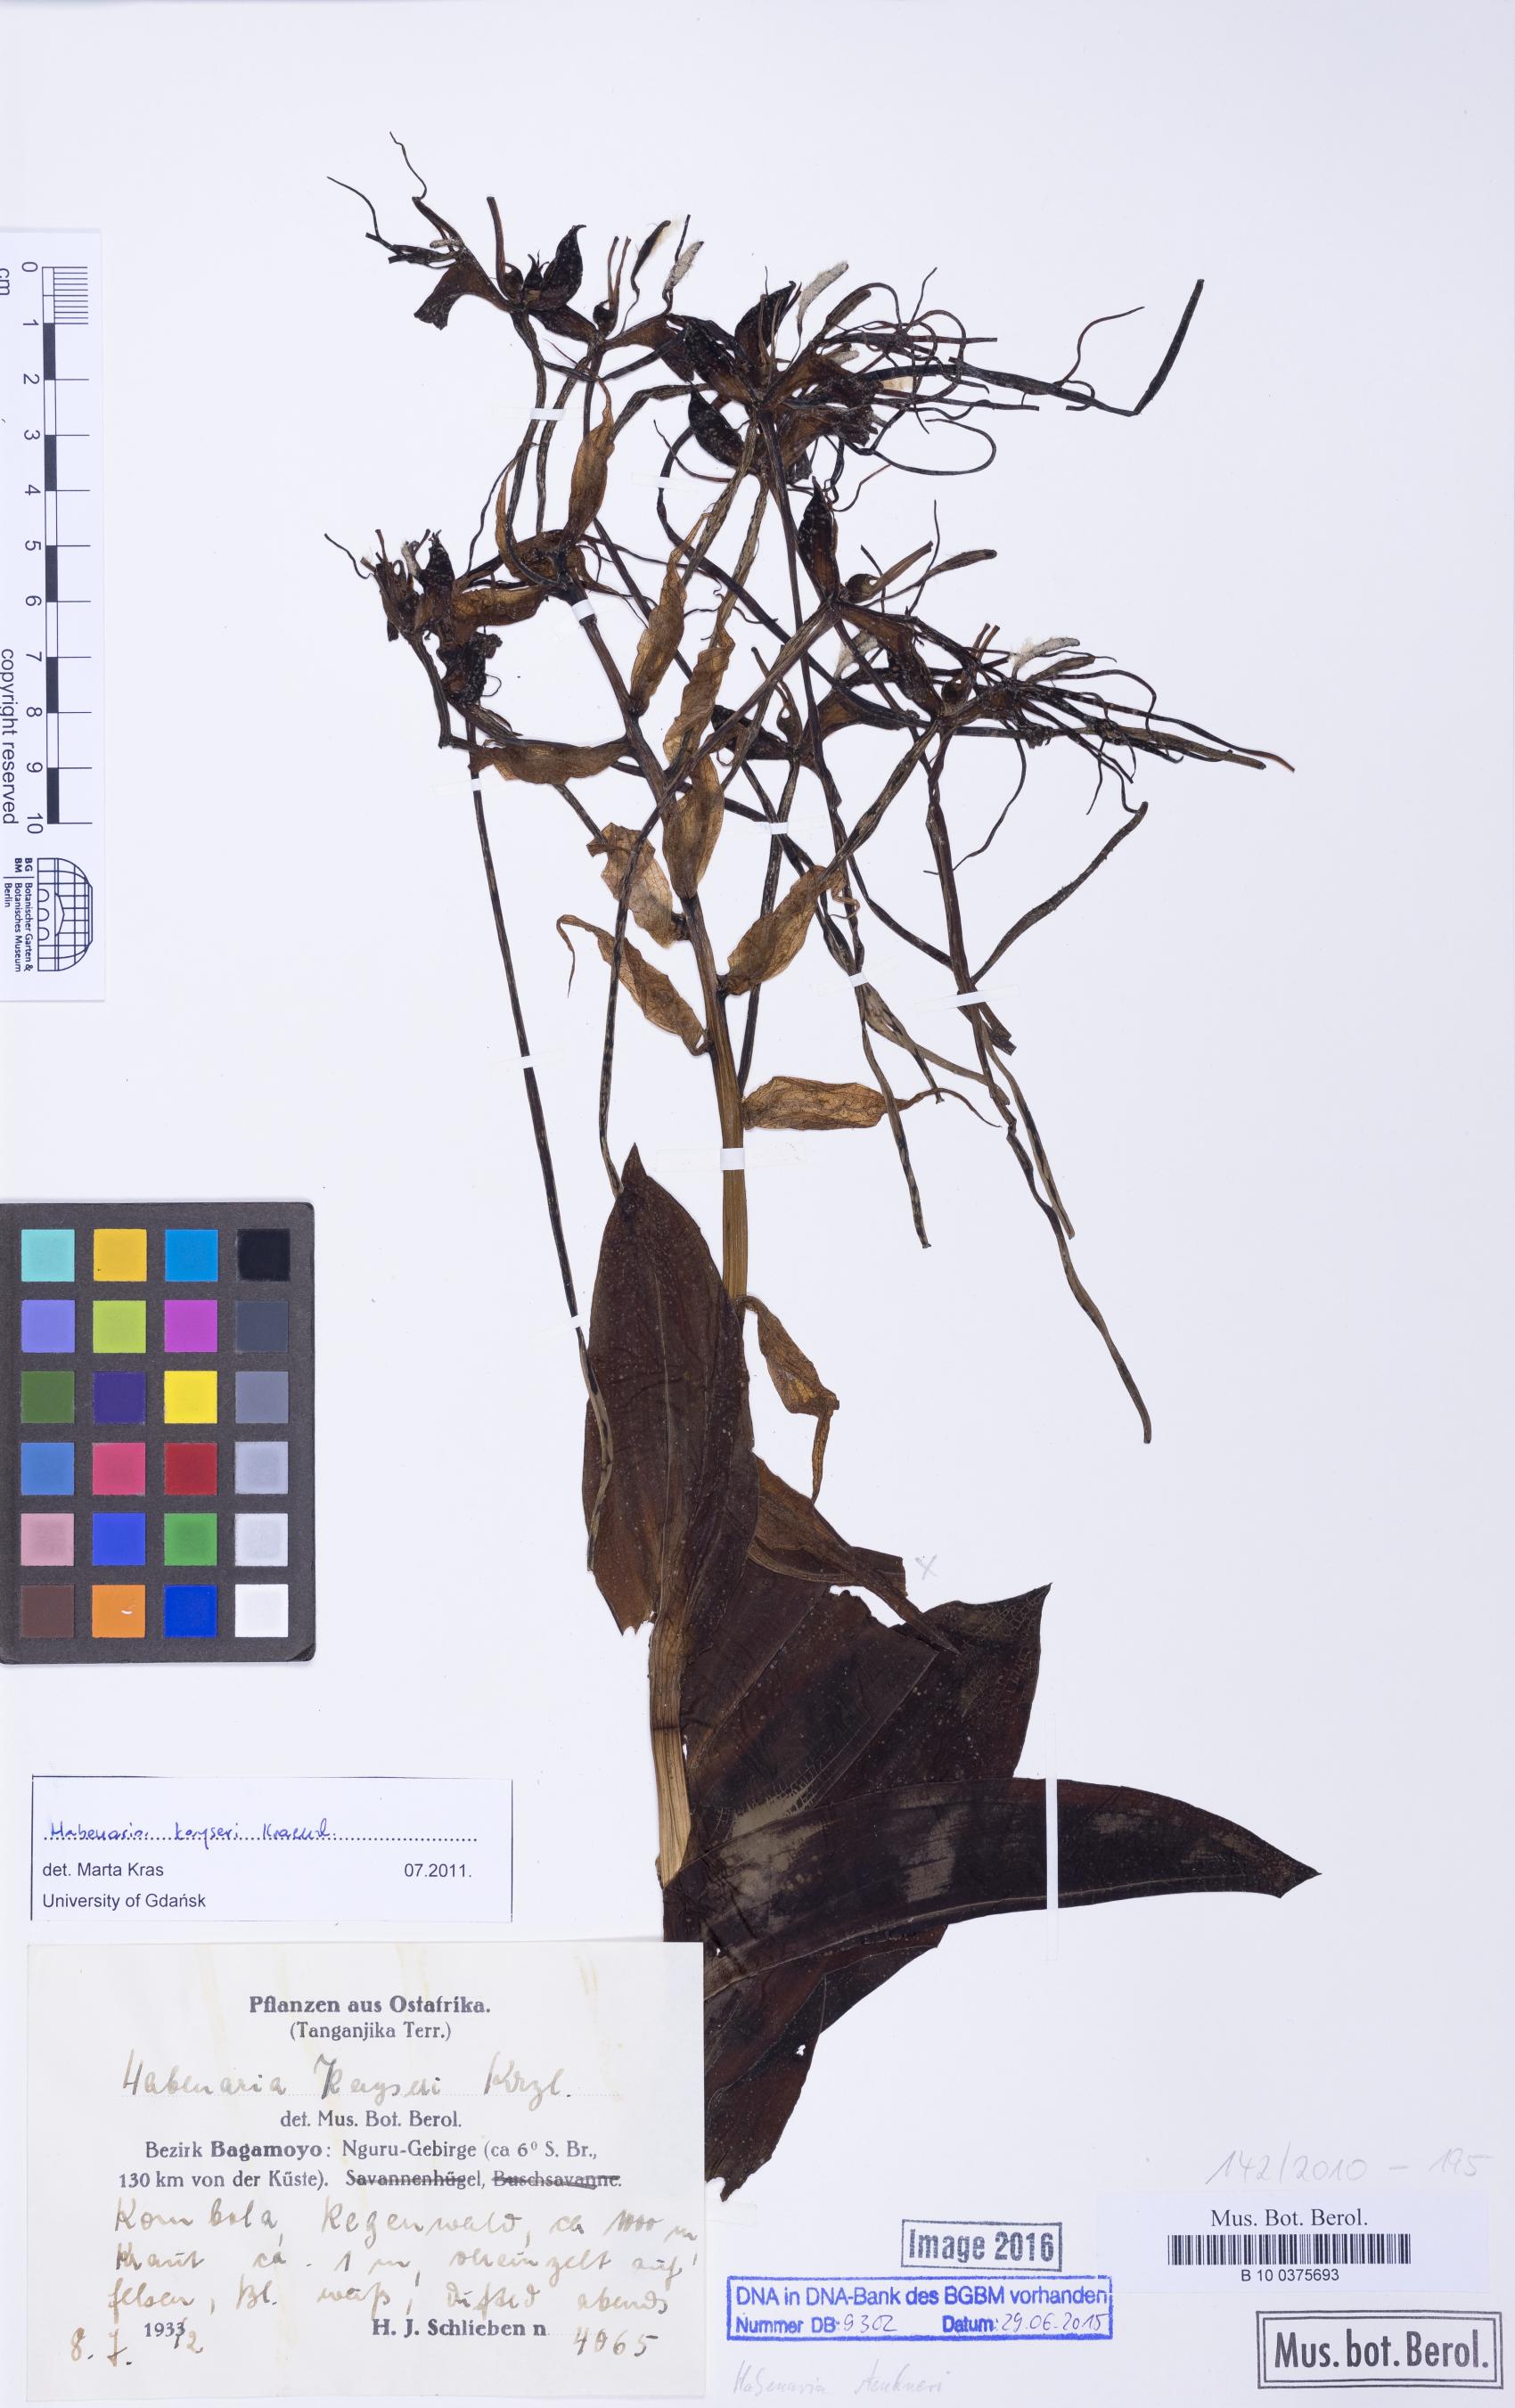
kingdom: Plantae
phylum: Tracheophyta
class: Liliopsida
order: Asparagales
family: Orchidaceae
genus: Habenaria
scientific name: Habenaria kayseri
